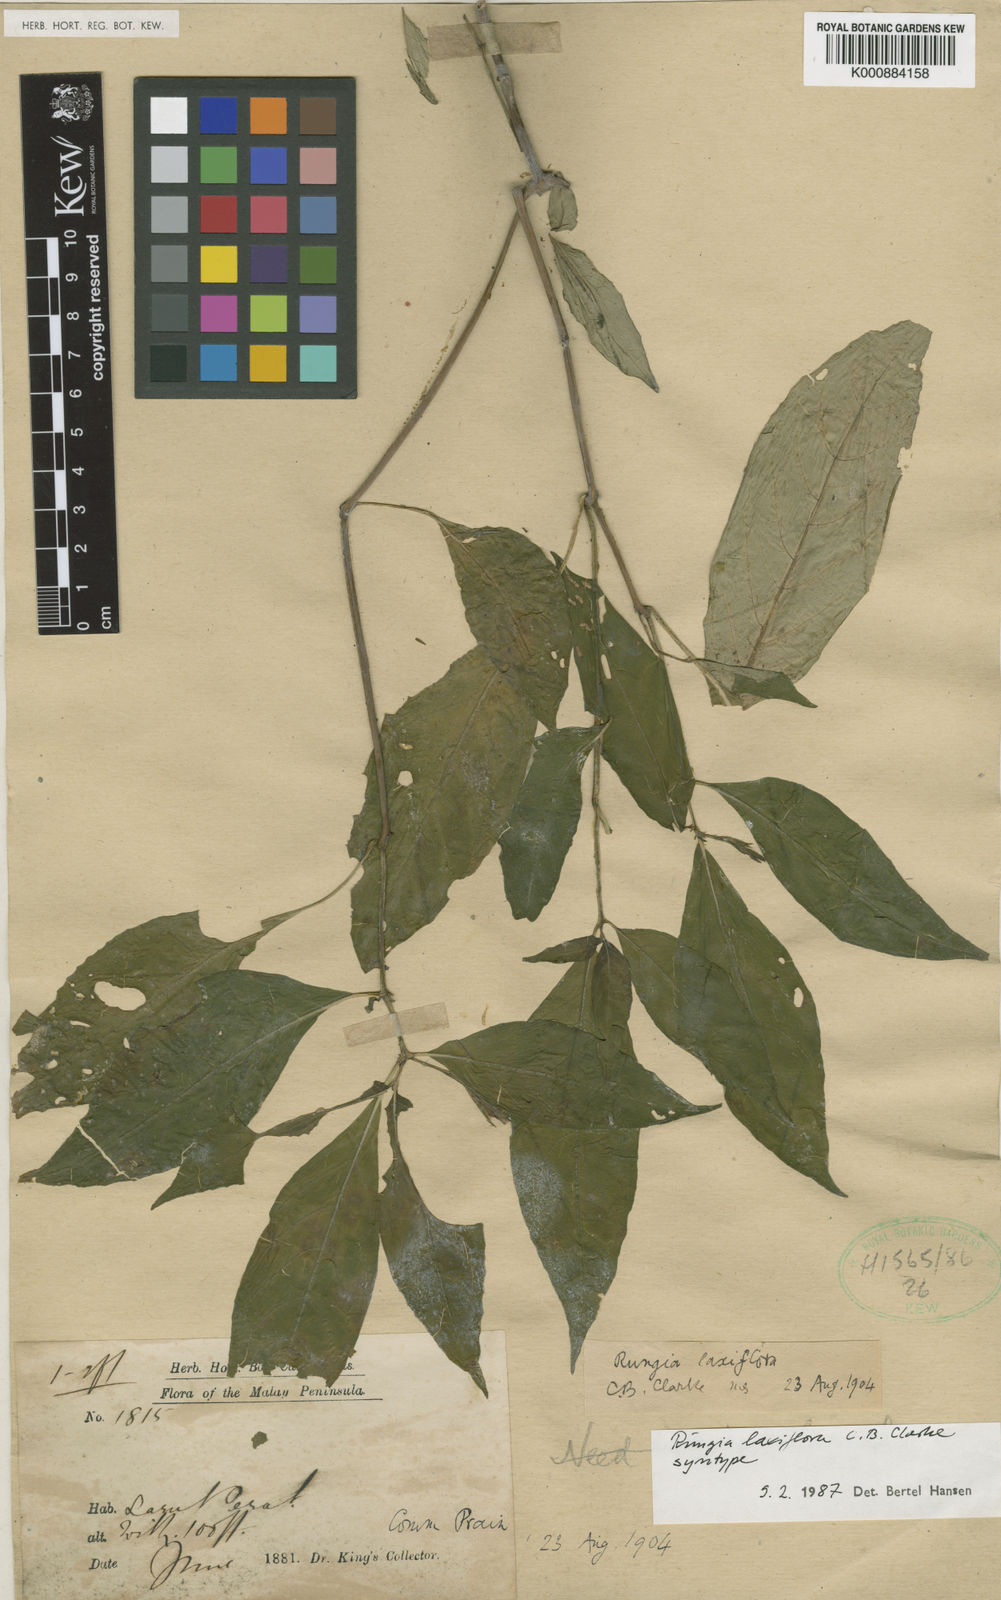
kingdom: Plantae
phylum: Tracheophyta
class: Magnoliopsida
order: Lamiales
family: Acanthaceae
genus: Haplanthus
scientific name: Haplanthus laxiflorus
